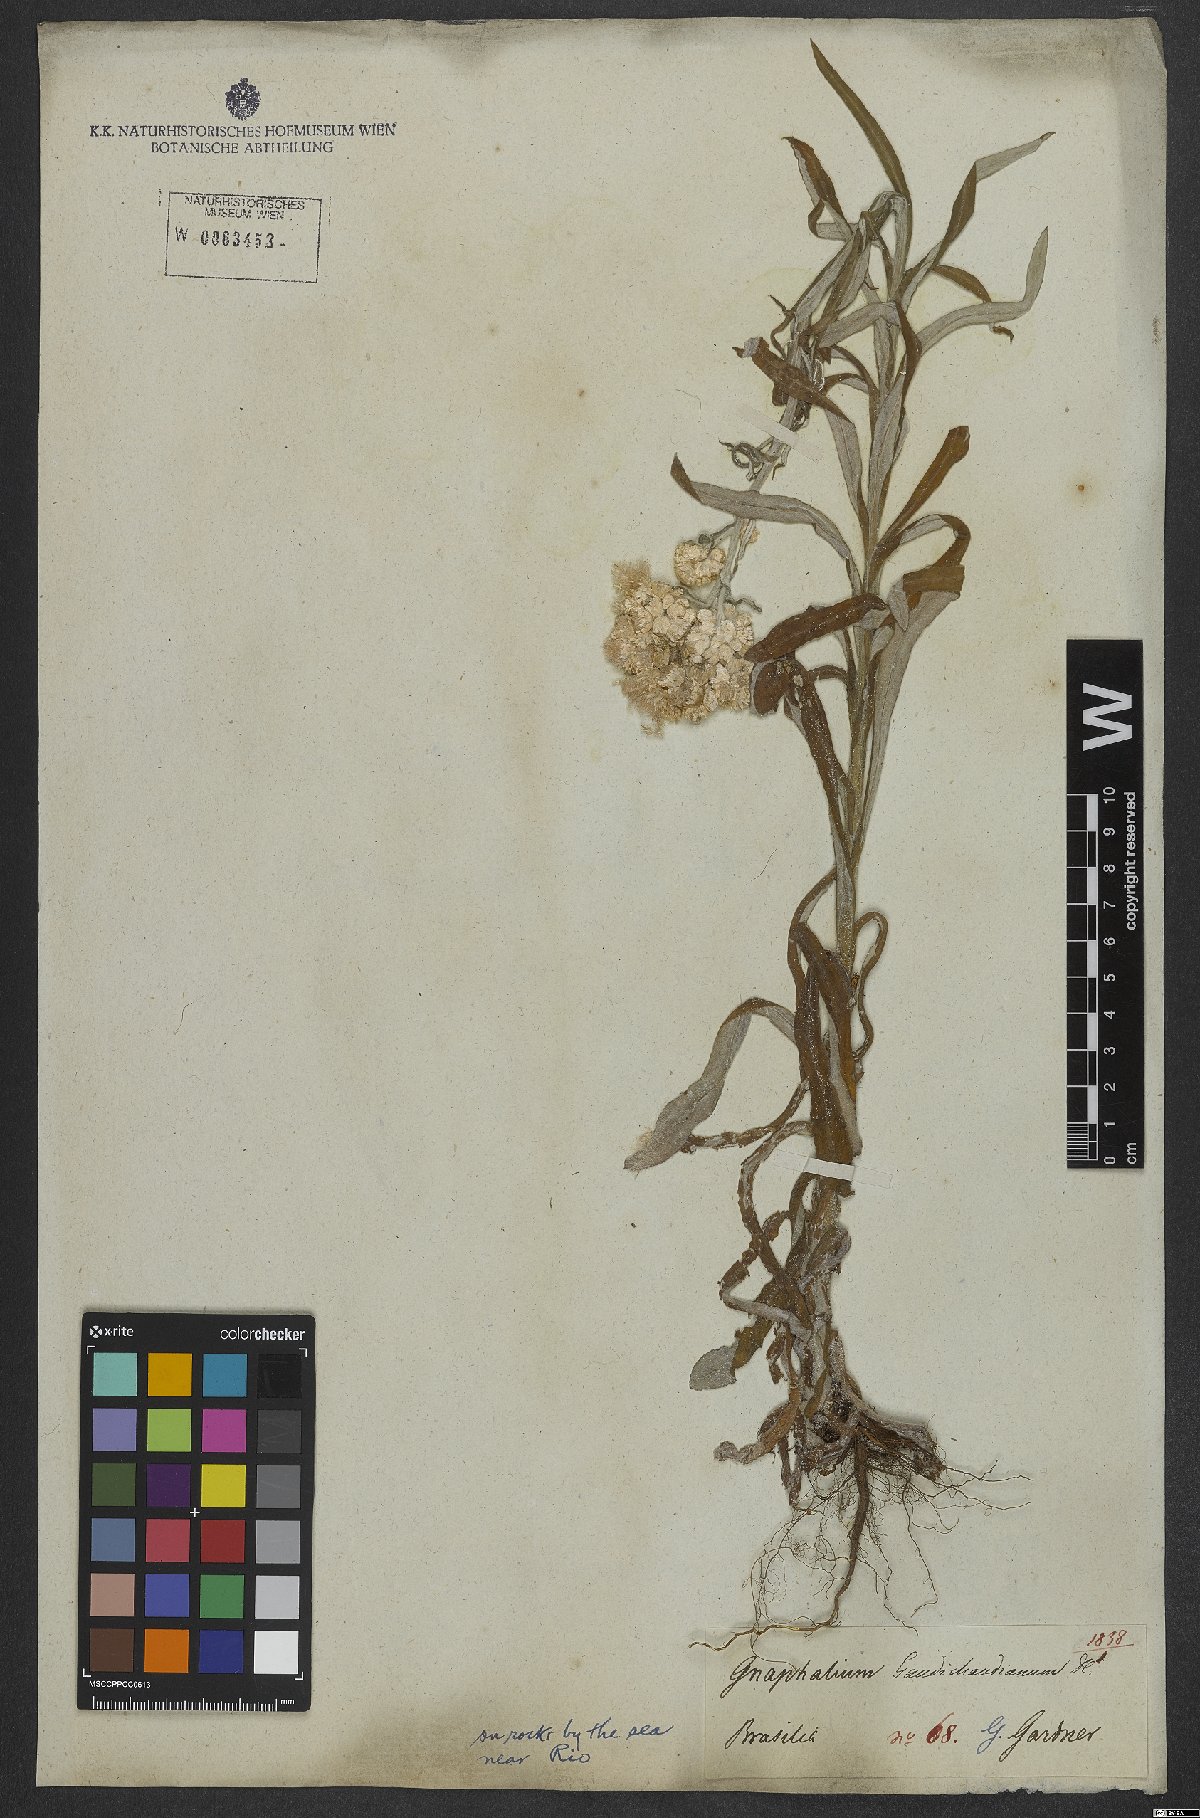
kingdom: Plantae
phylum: Tracheophyta
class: Magnoliopsida
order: Asterales
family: Asteraceae
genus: Pseudognaphalium
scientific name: Pseudognaphalium gaudichaudianum
